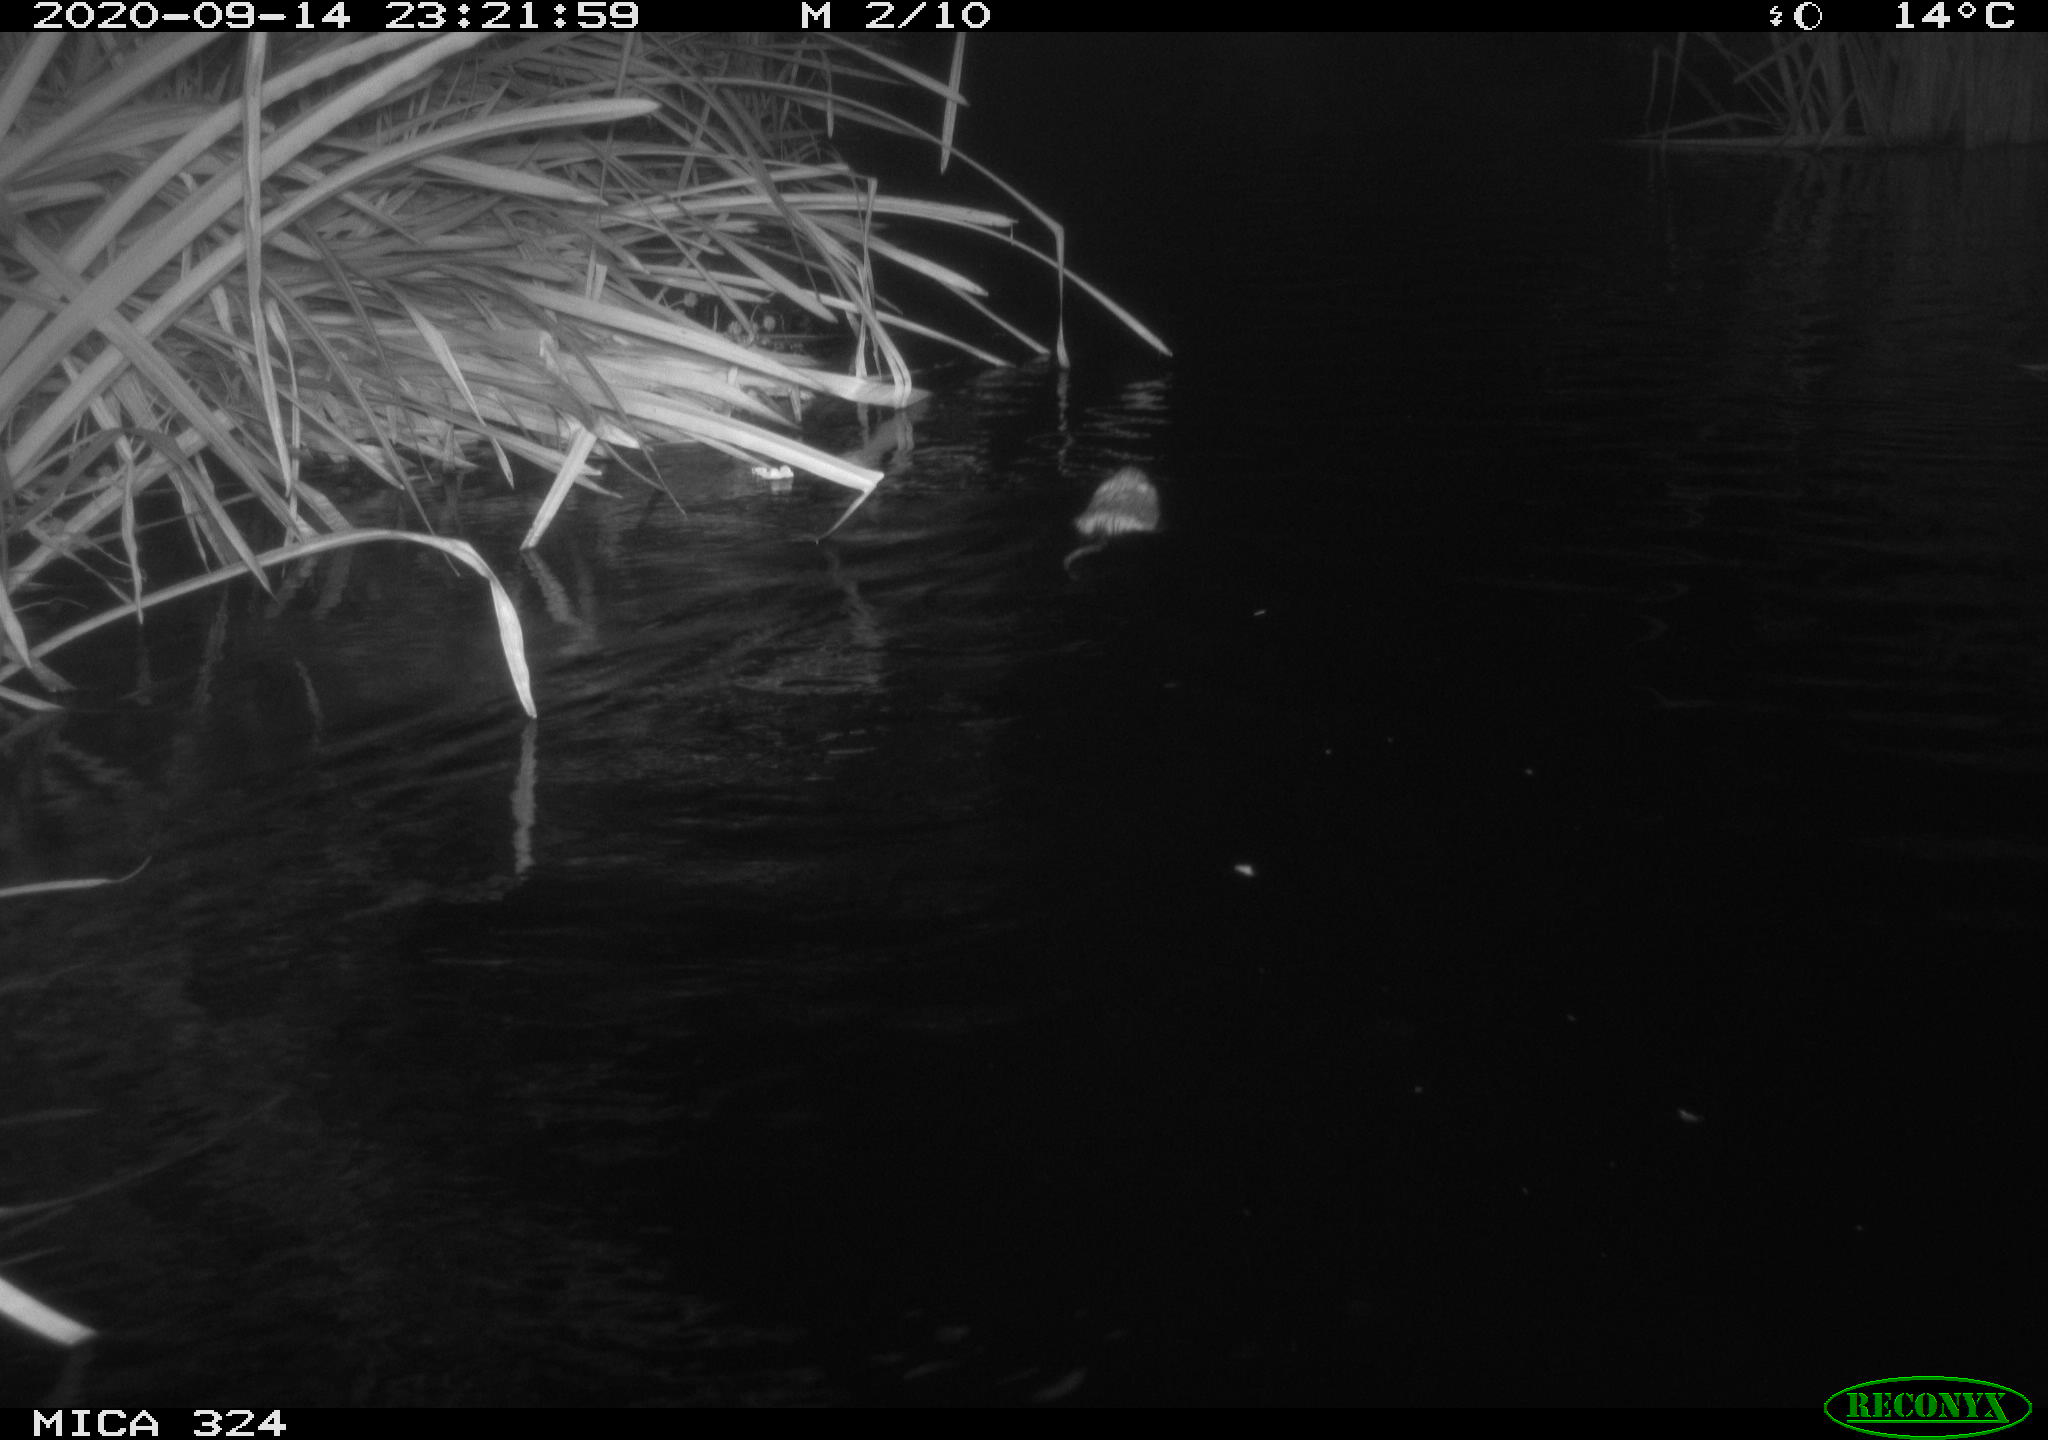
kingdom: Animalia
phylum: Chordata
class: Mammalia
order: Rodentia
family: Cricetidae
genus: Ondatra
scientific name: Ondatra zibethicus
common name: Muskrat
